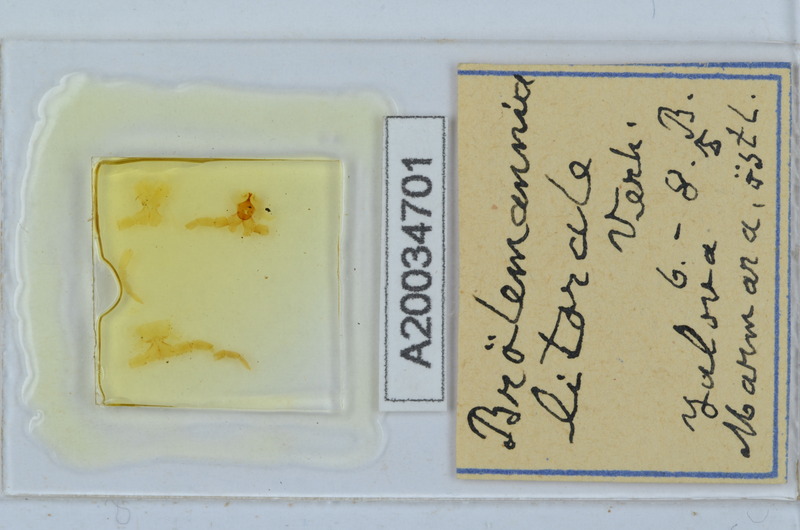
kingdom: Animalia
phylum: Arthropoda
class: Diplopoda
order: Callipodida
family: Schizopetalidae
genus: Eurygyrus
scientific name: Eurygyrus
